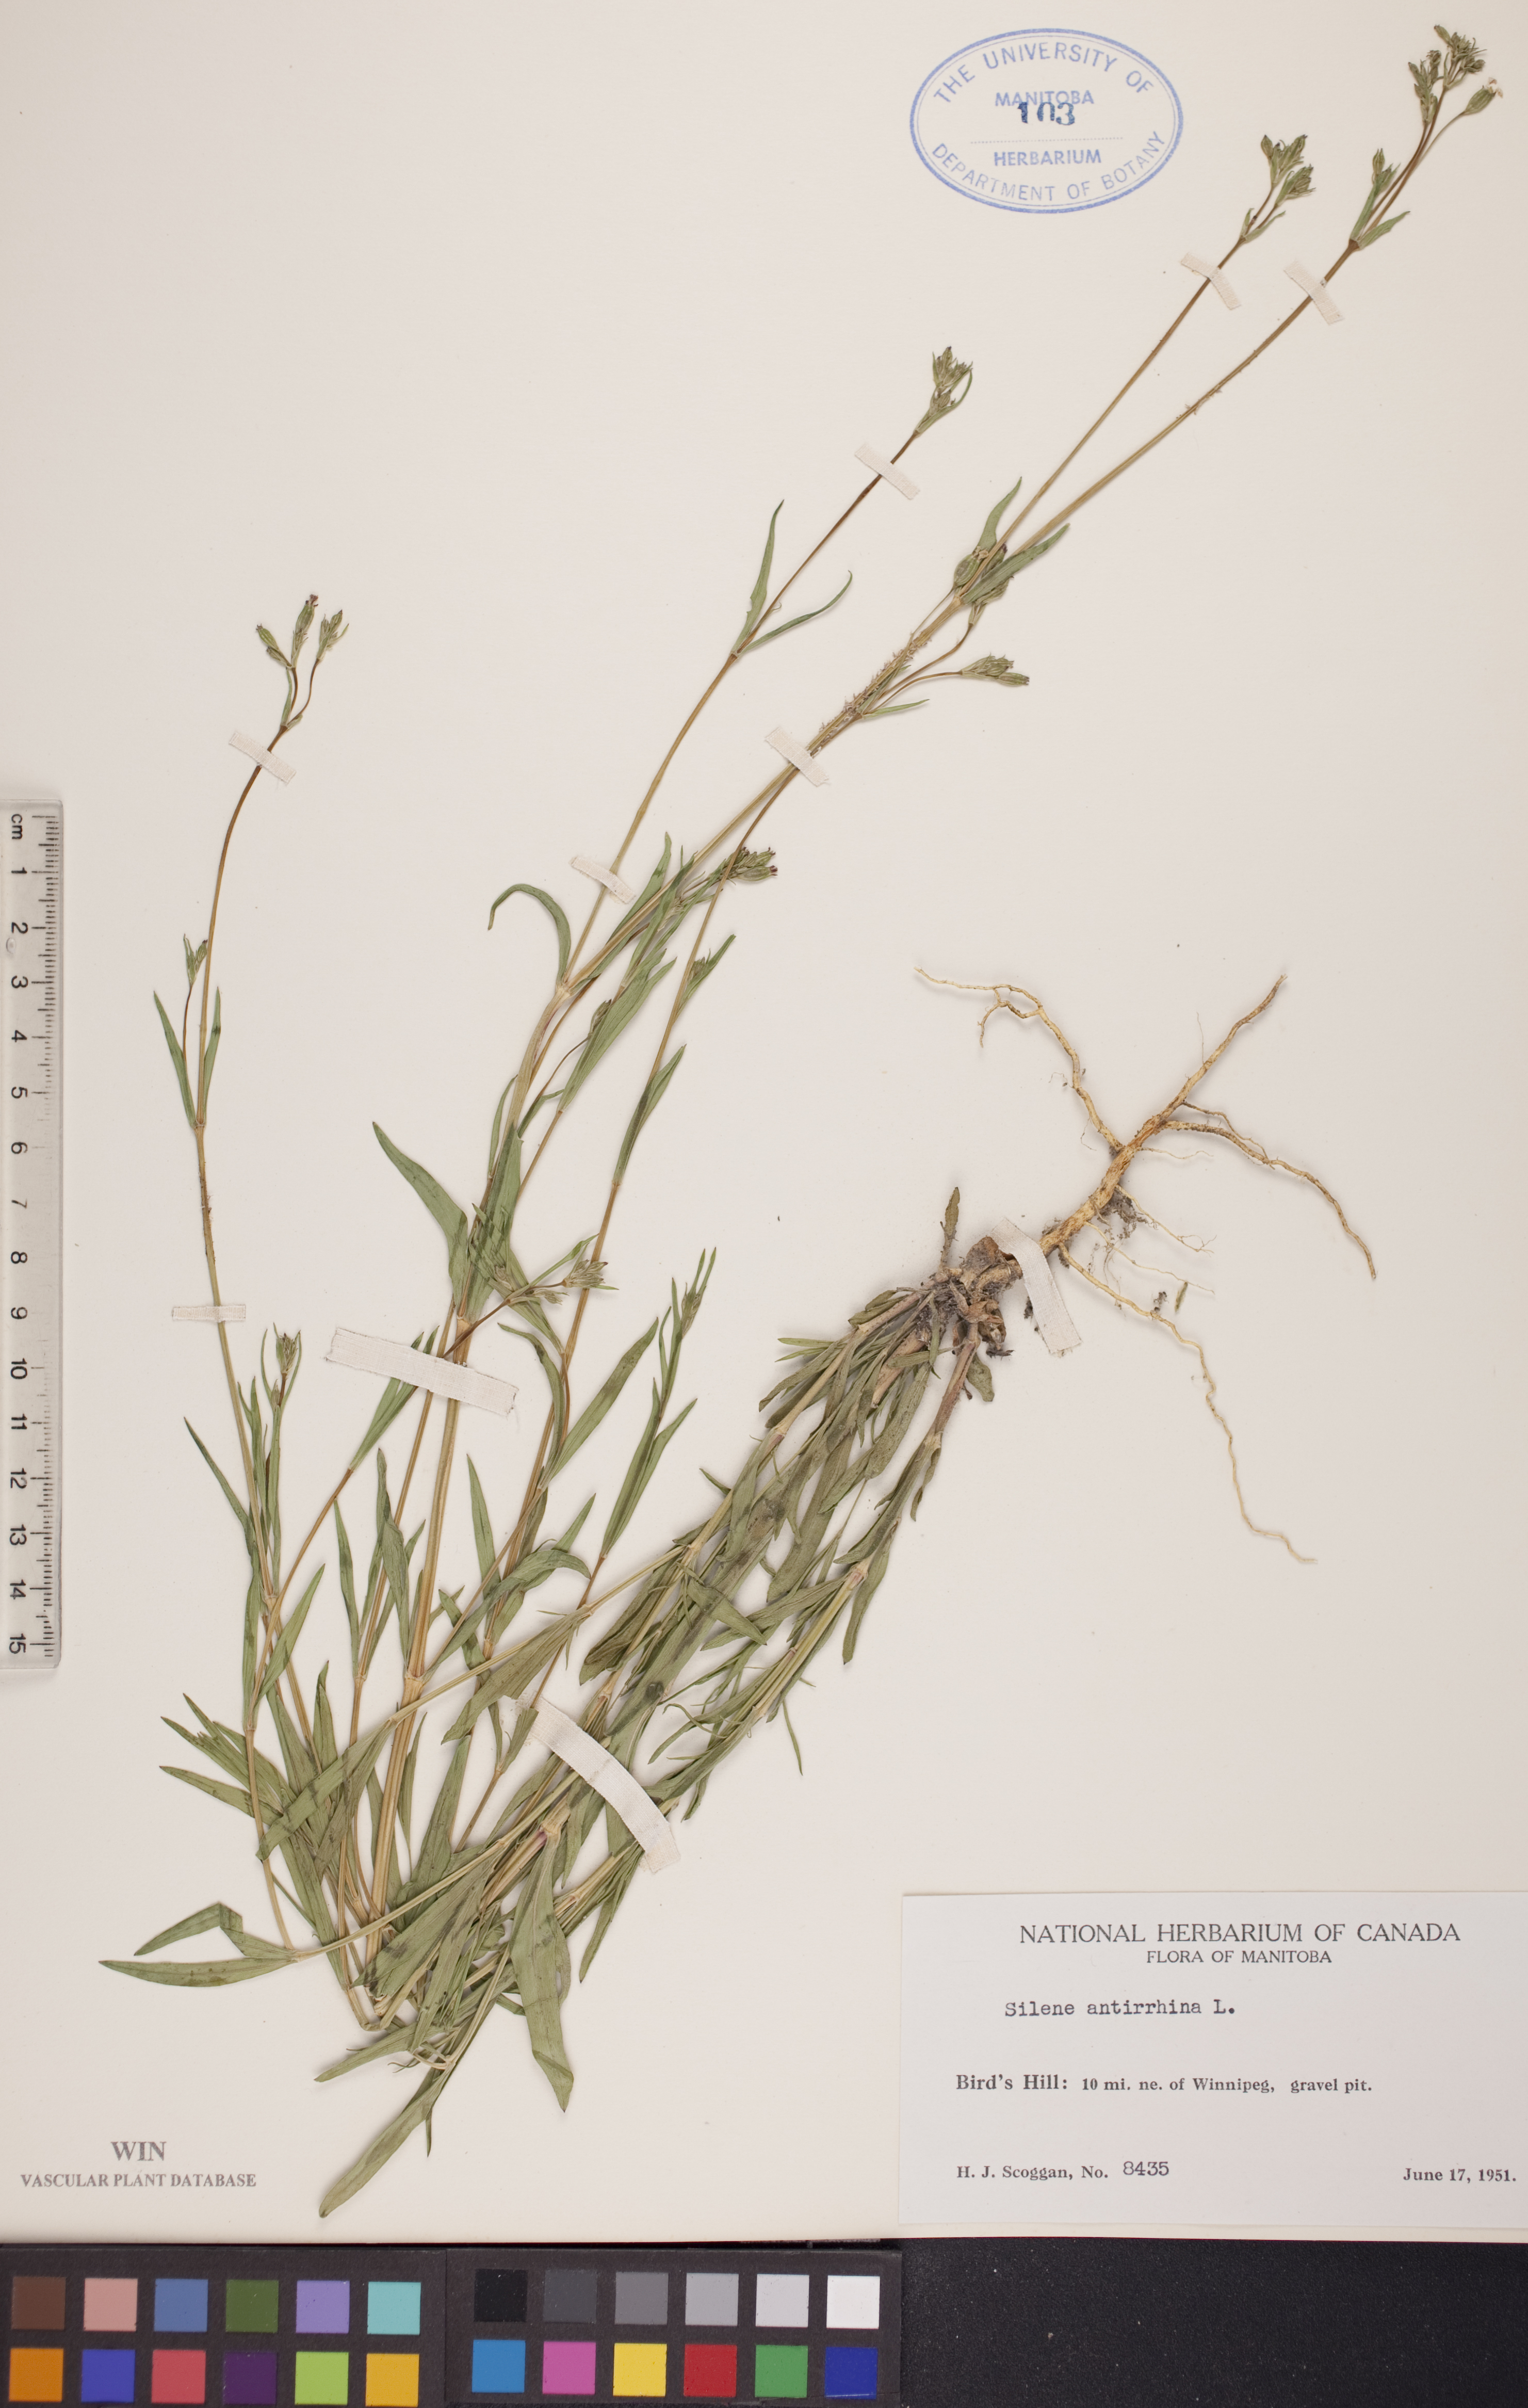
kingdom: Plantae
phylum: Tracheophyta
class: Magnoliopsida
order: Caryophyllales
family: Caryophyllaceae
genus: Silene
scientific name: Silene antirrhina
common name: Sleepy catchfly
